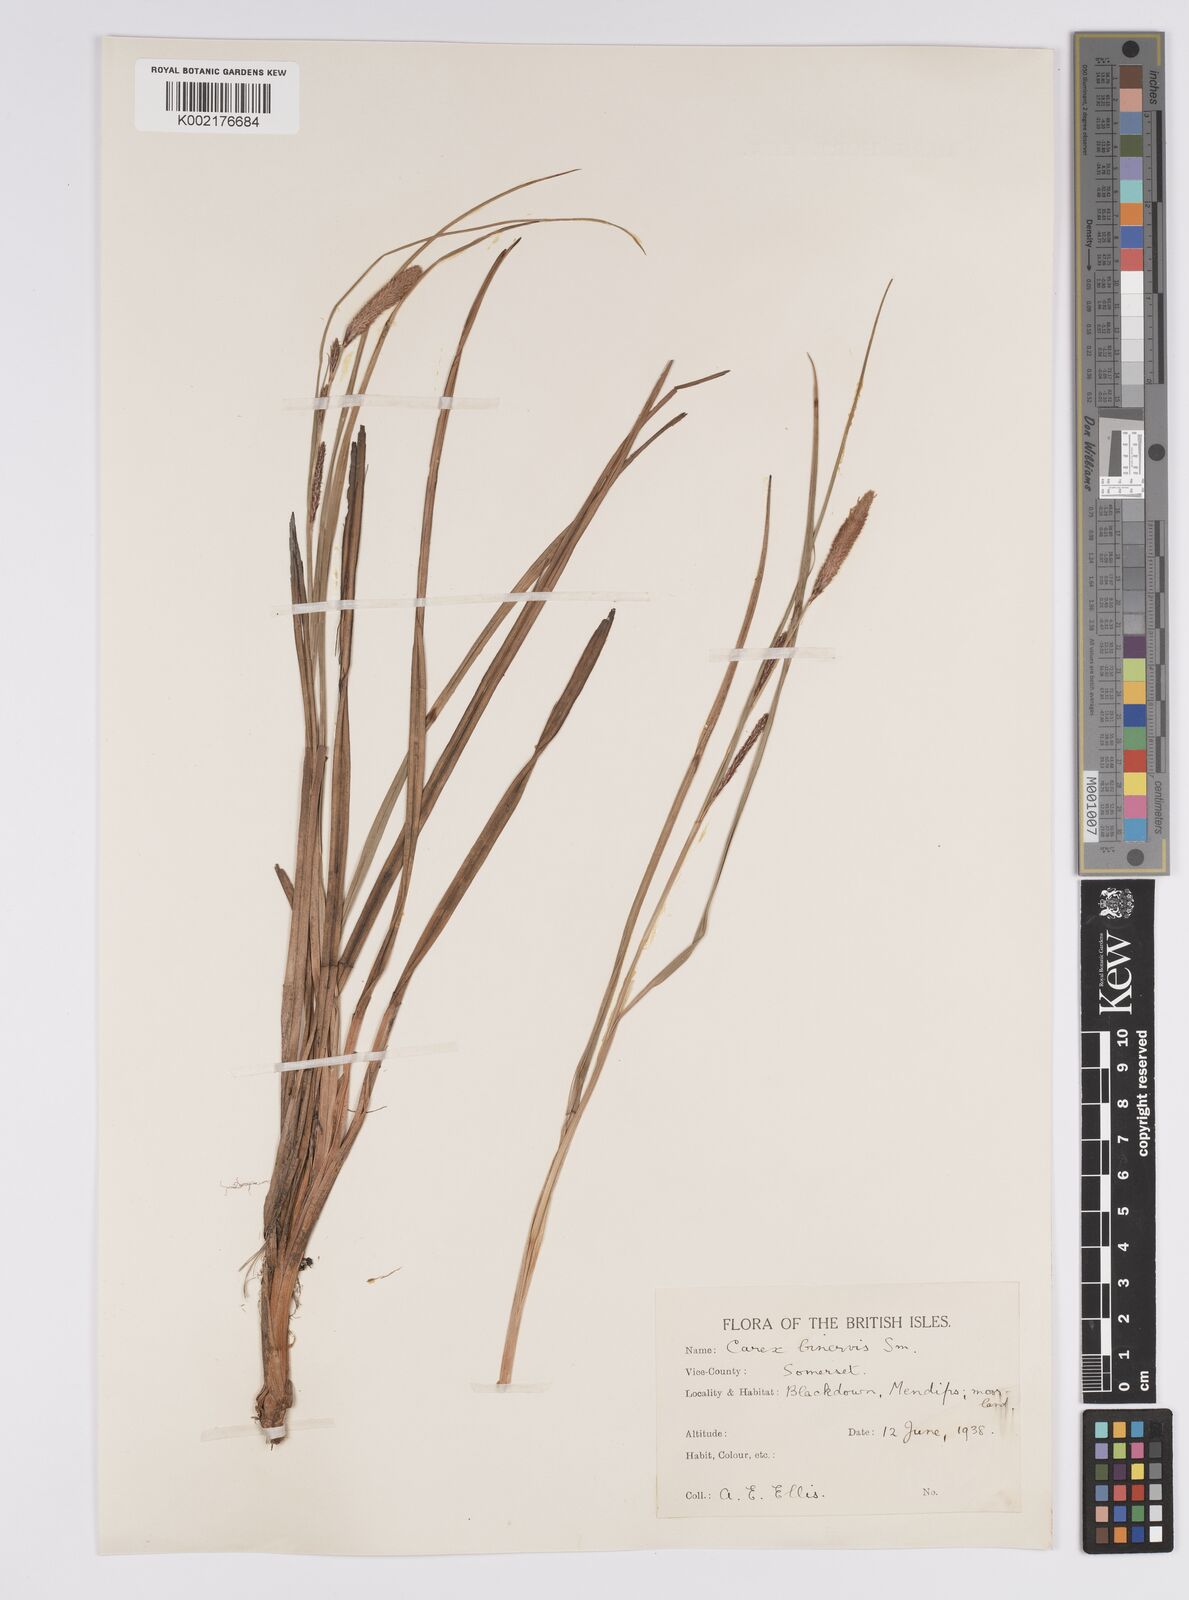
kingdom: Plantae
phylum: Tracheophyta
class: Liliopsida
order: Poales
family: Cyperaceae
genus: Carex
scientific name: Carex binervis
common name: Green-ribbed sedge
